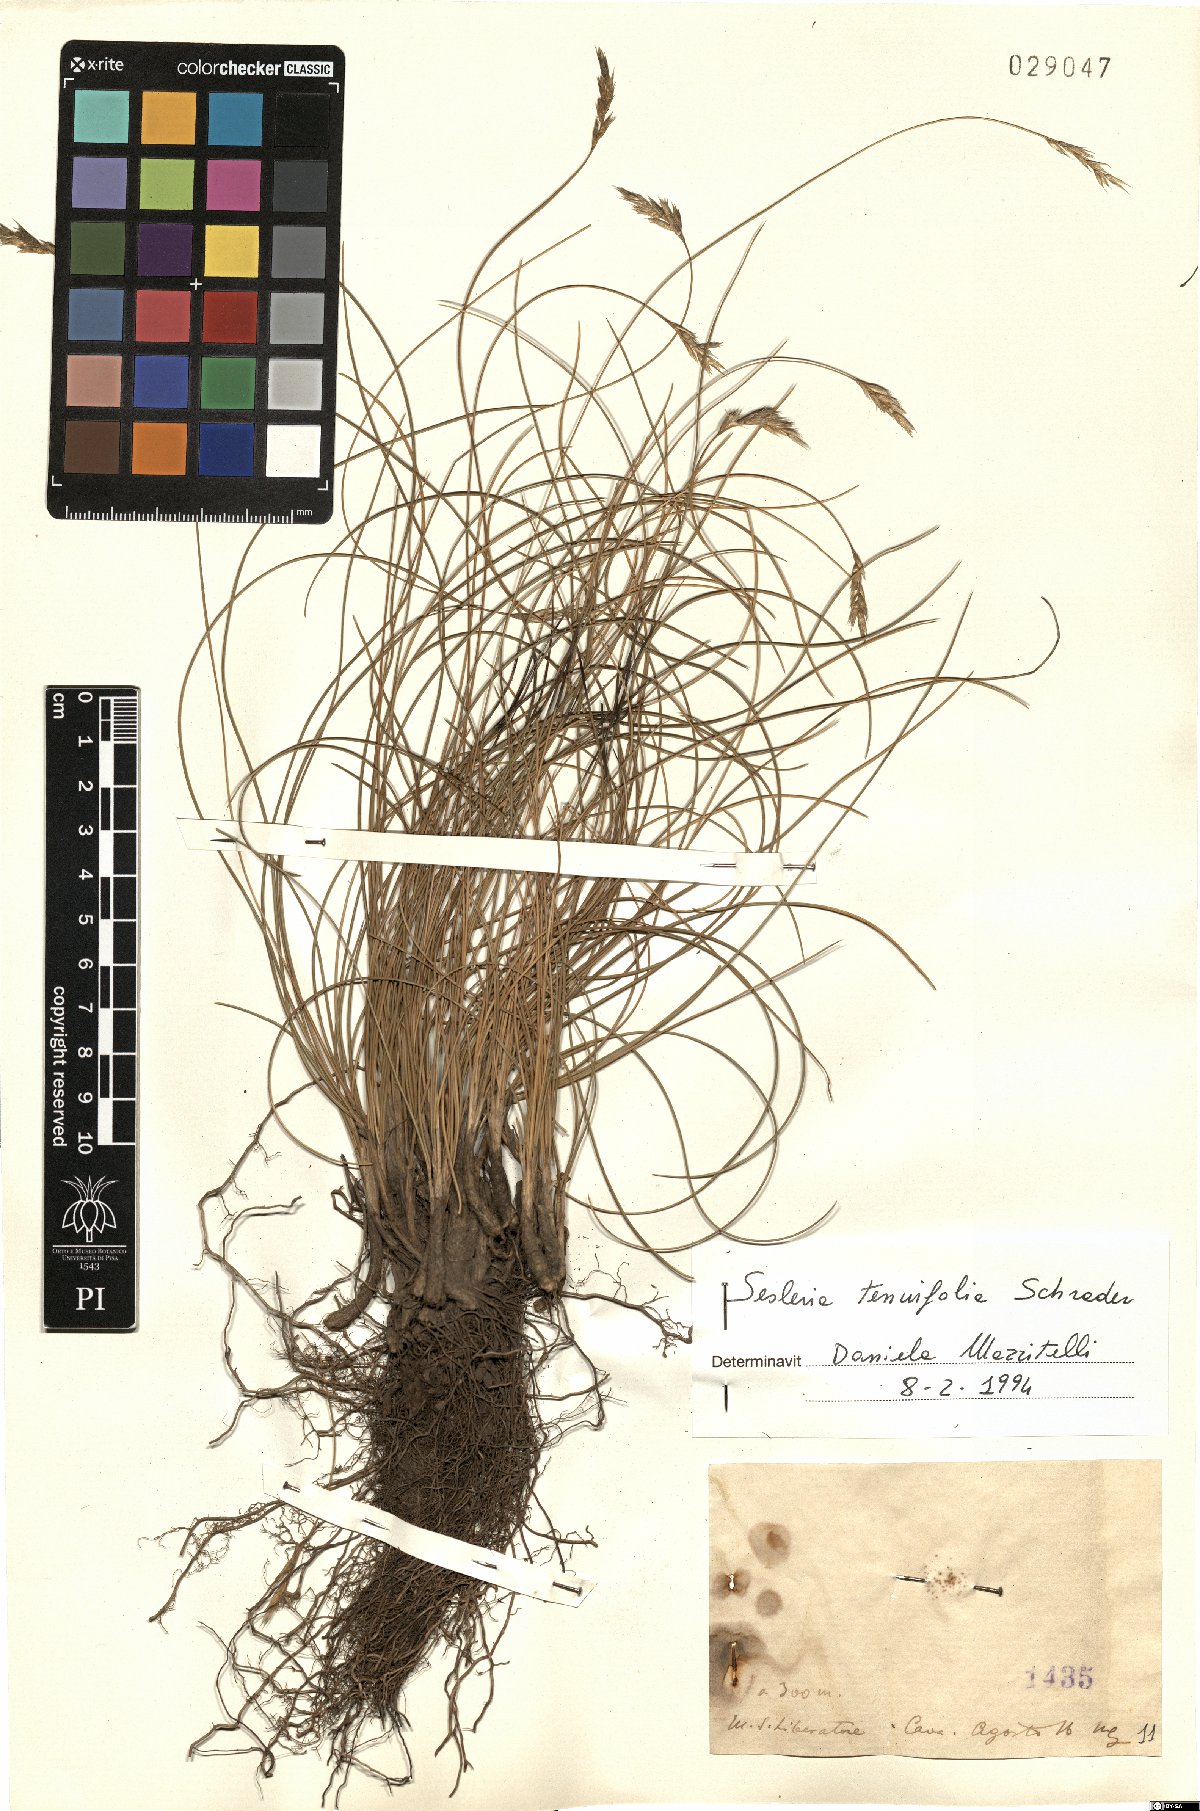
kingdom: Plantae
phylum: Tracheophyta
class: Liliopsida
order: Poales
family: Poaceae
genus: Sesleria
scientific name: Sesleria juncifolia
